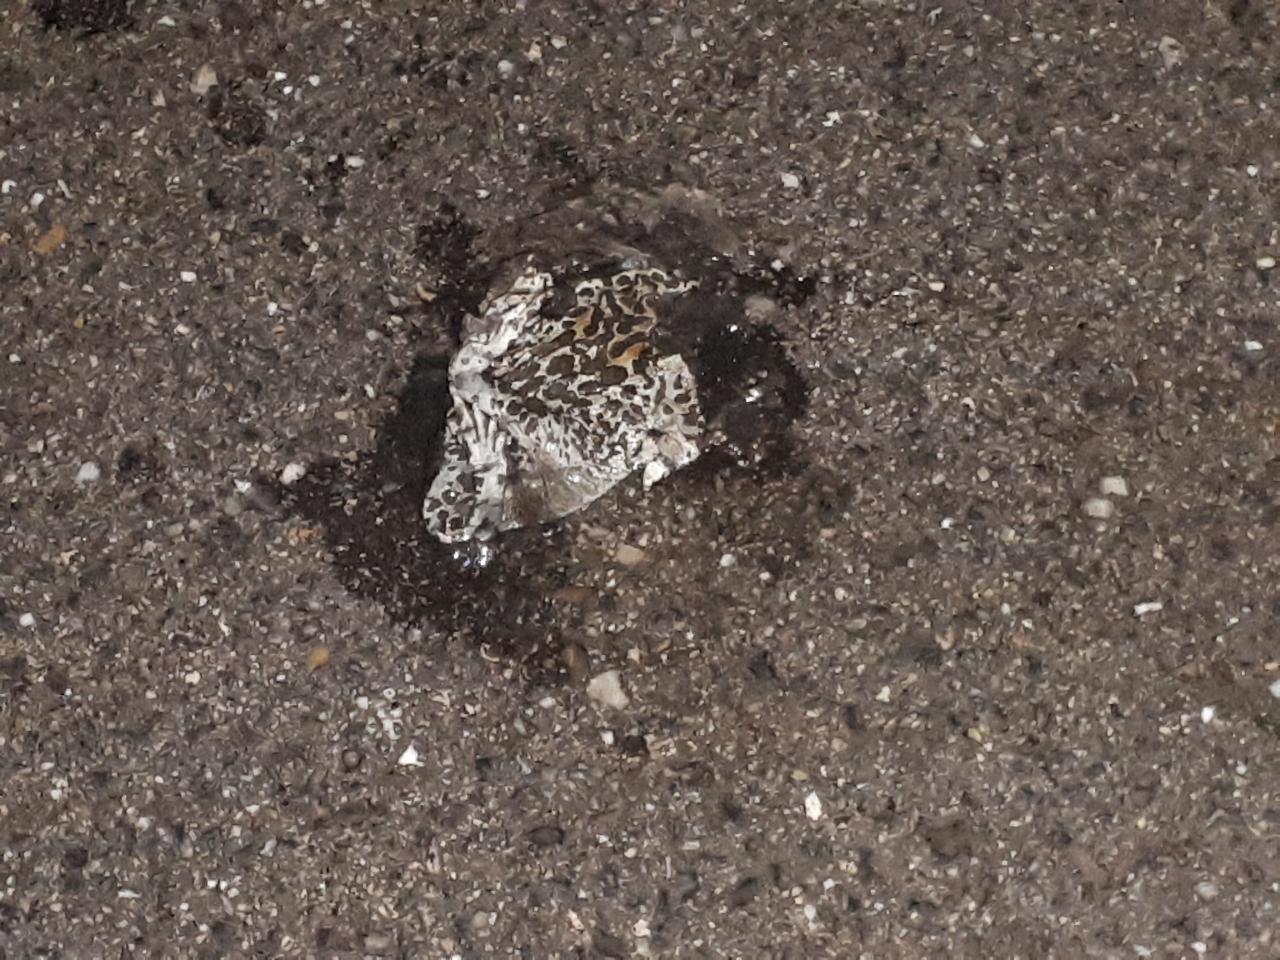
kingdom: Animalia
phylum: Chordata
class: Amphibia
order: Anura
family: Bufonidae
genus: Bufotes
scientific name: Bufotes viridis
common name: European green toad
